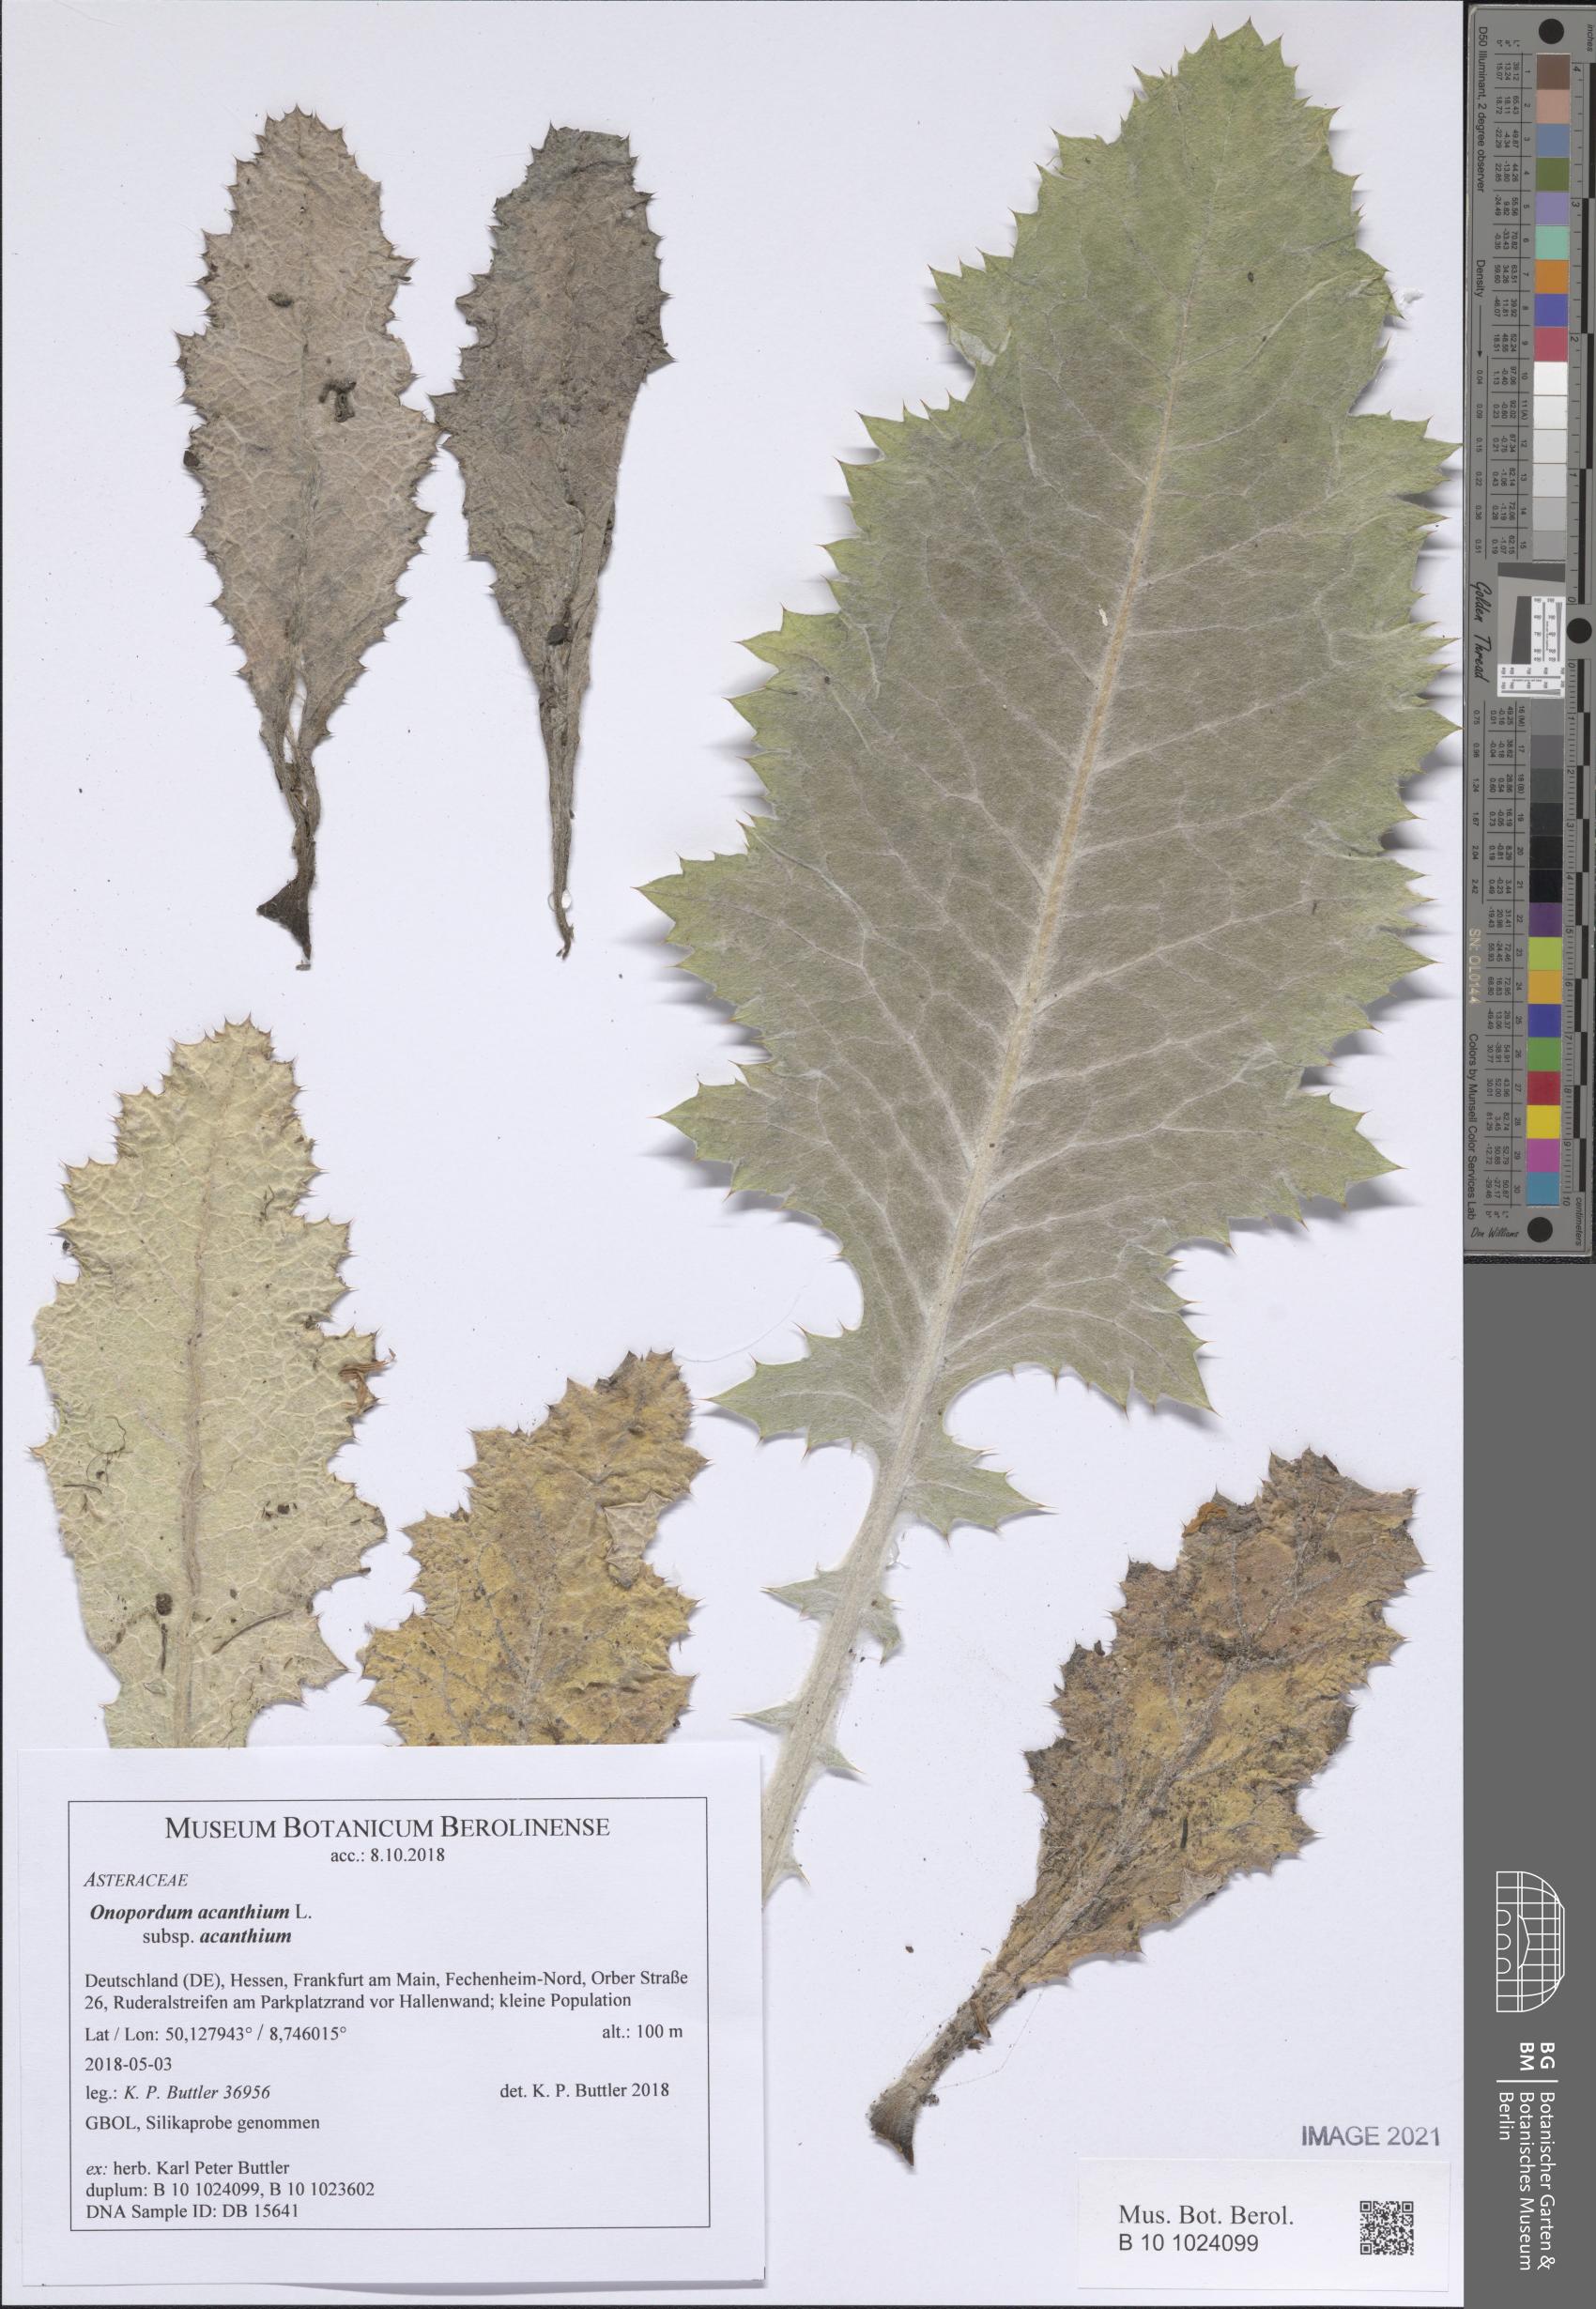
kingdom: Plantae
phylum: Tracheophyta
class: Magnoliopsida
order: Asterales
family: Asteraceae
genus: Onopordum
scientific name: Onopordum acanthium
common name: Scotch thistle
